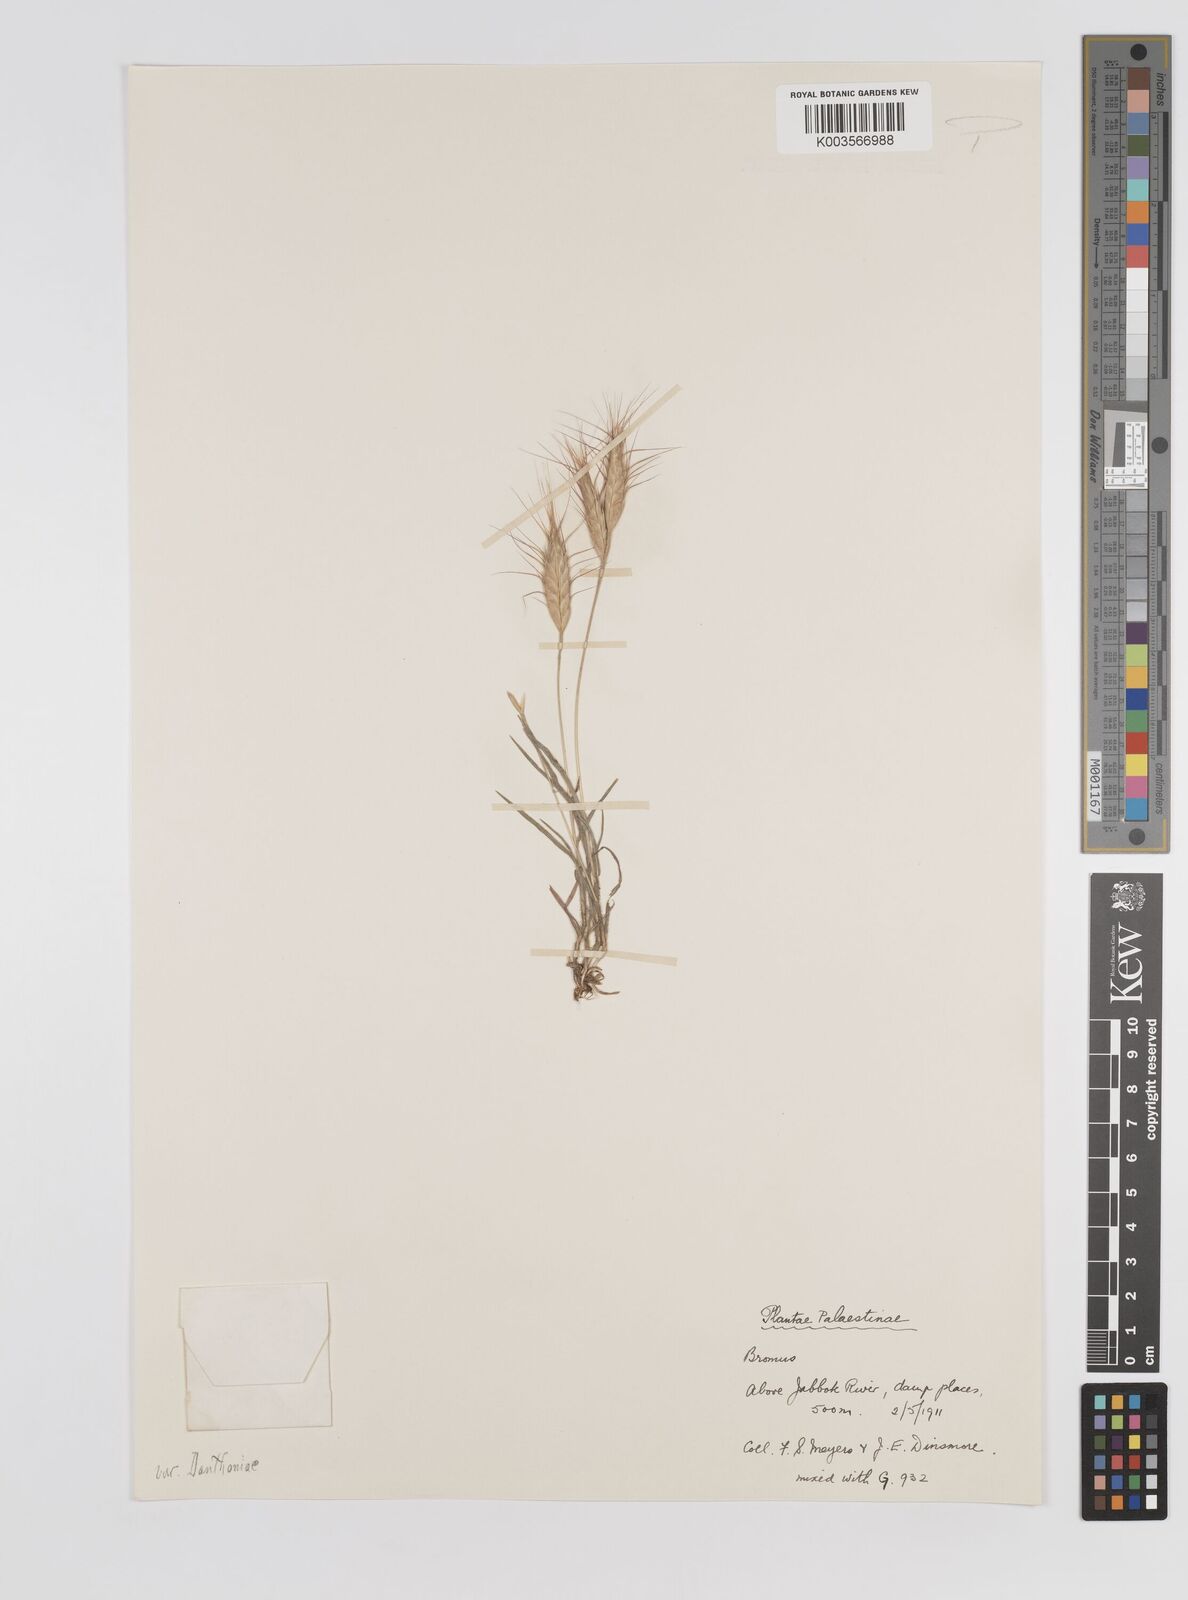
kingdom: Plantae
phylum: Tracheophyta
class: Liliopsida
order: Poales
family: Poaceae
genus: Bromus
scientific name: Bromus danthoniae
